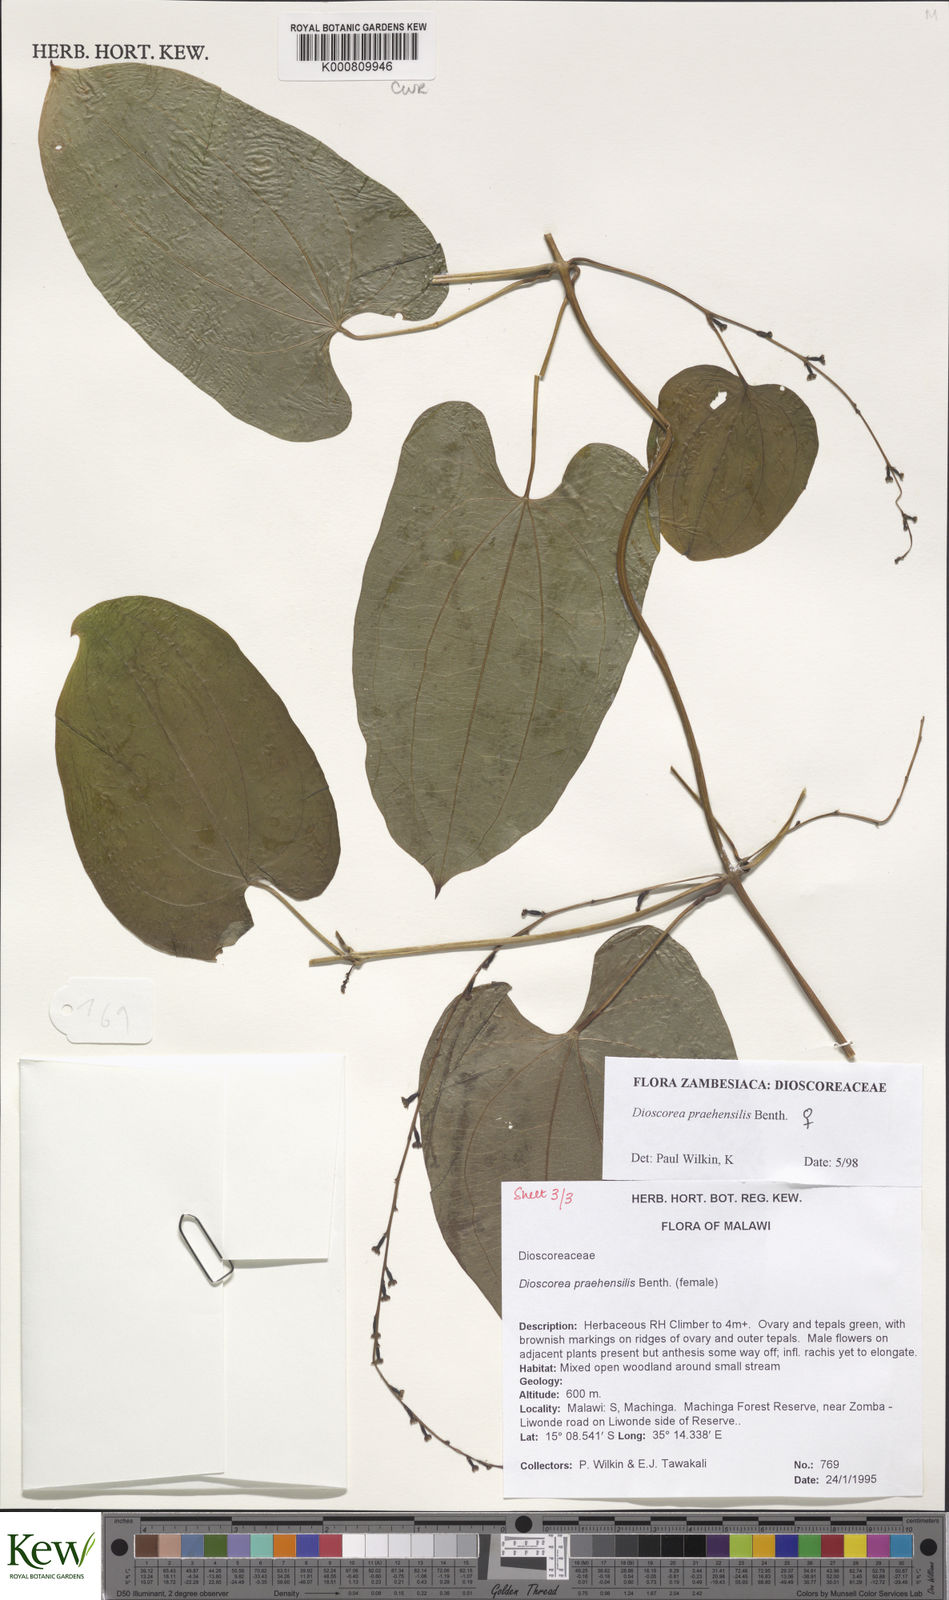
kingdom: Plantae
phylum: Tracheophyta
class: Liliopsida
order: Dioscoreales
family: Dioscoreaceae
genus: Dioscorea
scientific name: Dioscorea praehensilis
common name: Bush yam
